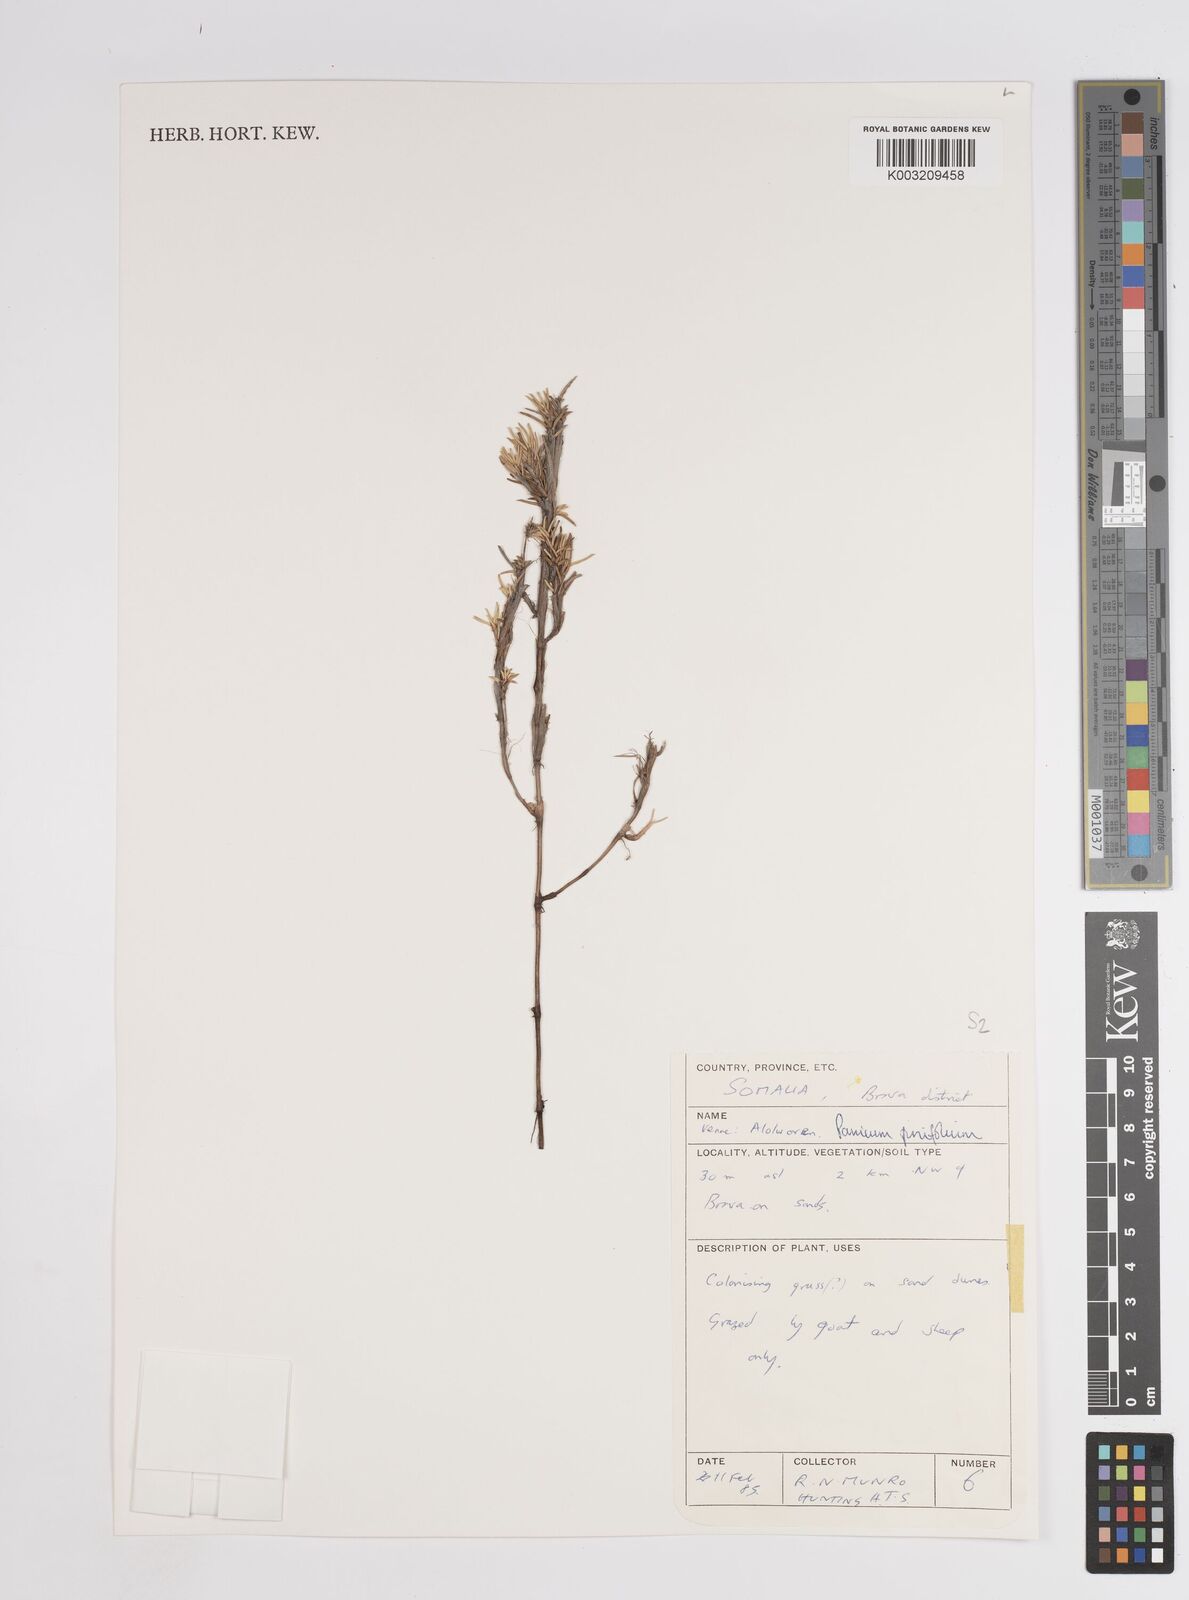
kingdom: Plantae
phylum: Tracheophyta
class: Liliopsida
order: Poales
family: Poaceae
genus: Panicum
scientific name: Panicum pinifolium
